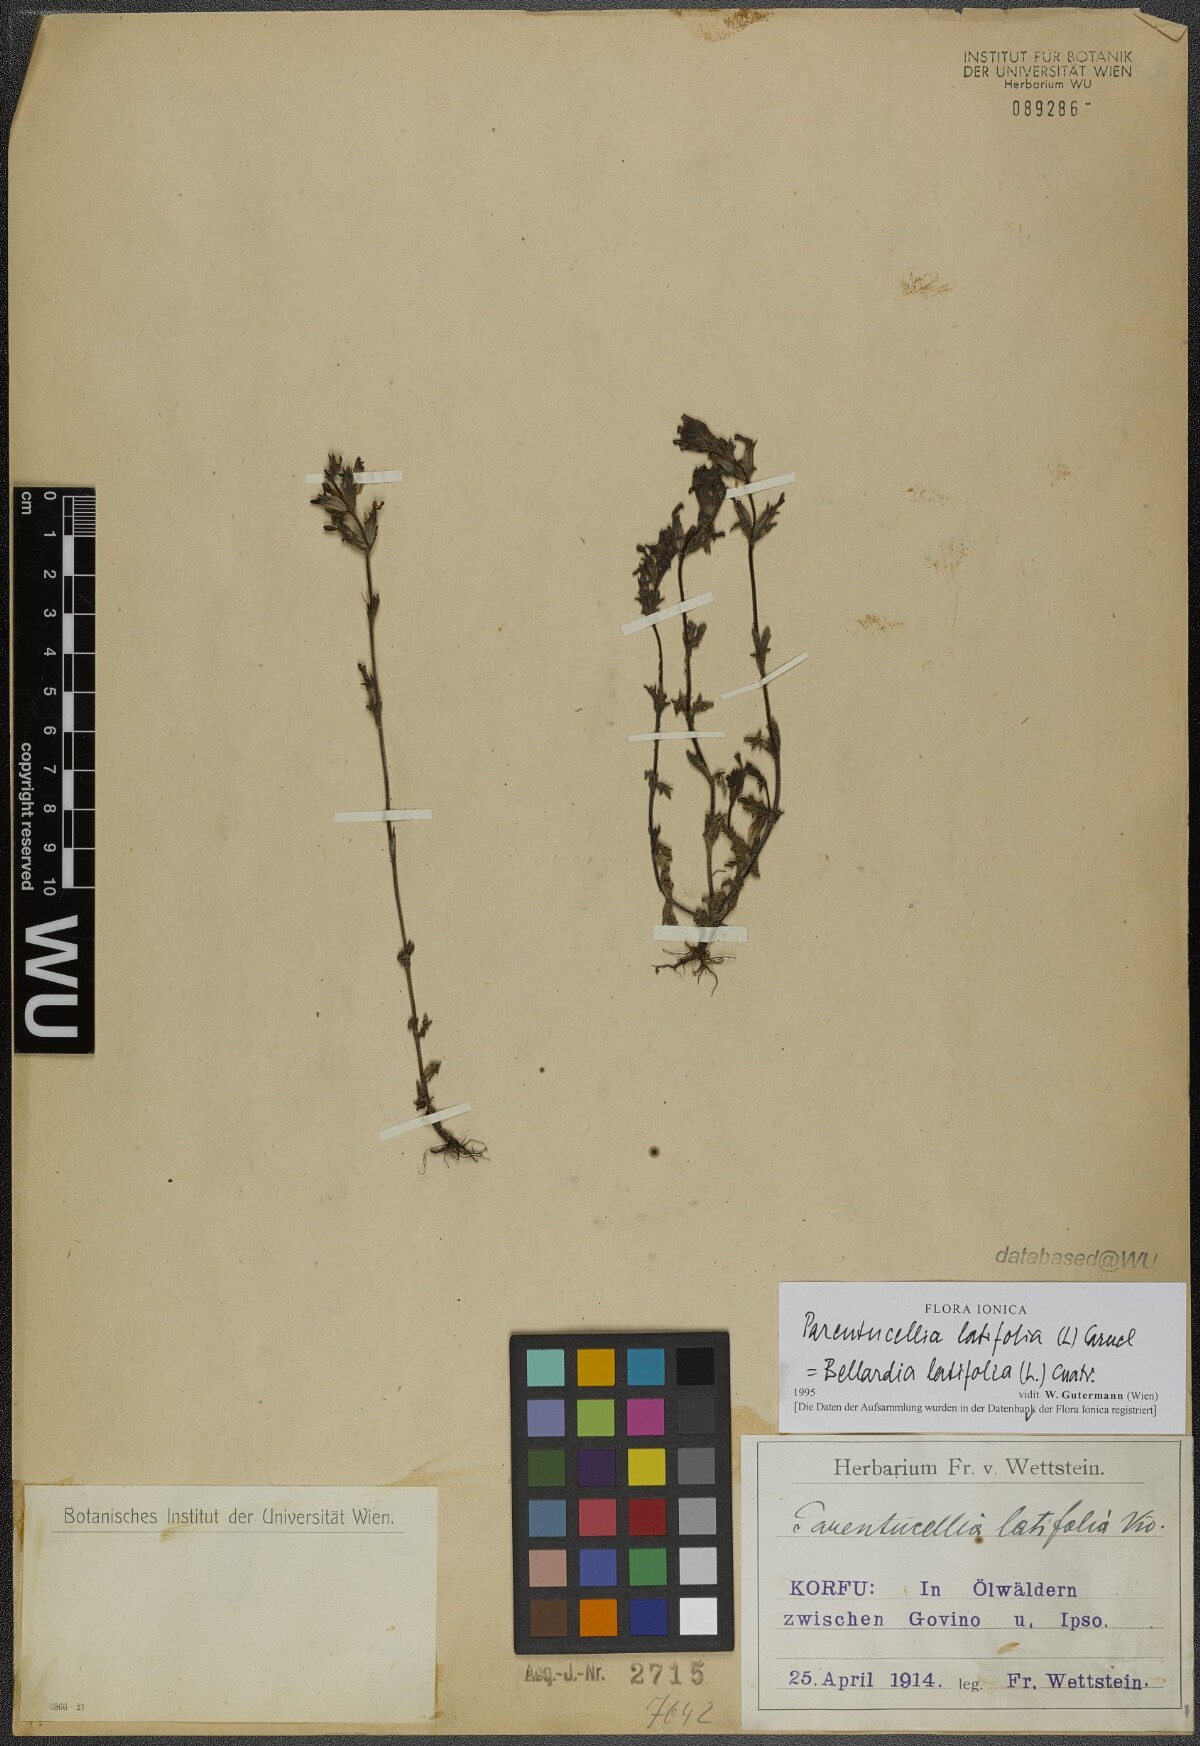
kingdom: Plantae
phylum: Tracheophyta
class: Magnoliopsida
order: Lamiales
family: Orobanchaceae
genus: Parentucellia
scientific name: Parentucellia latifolia
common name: Broadleaf glandweed
